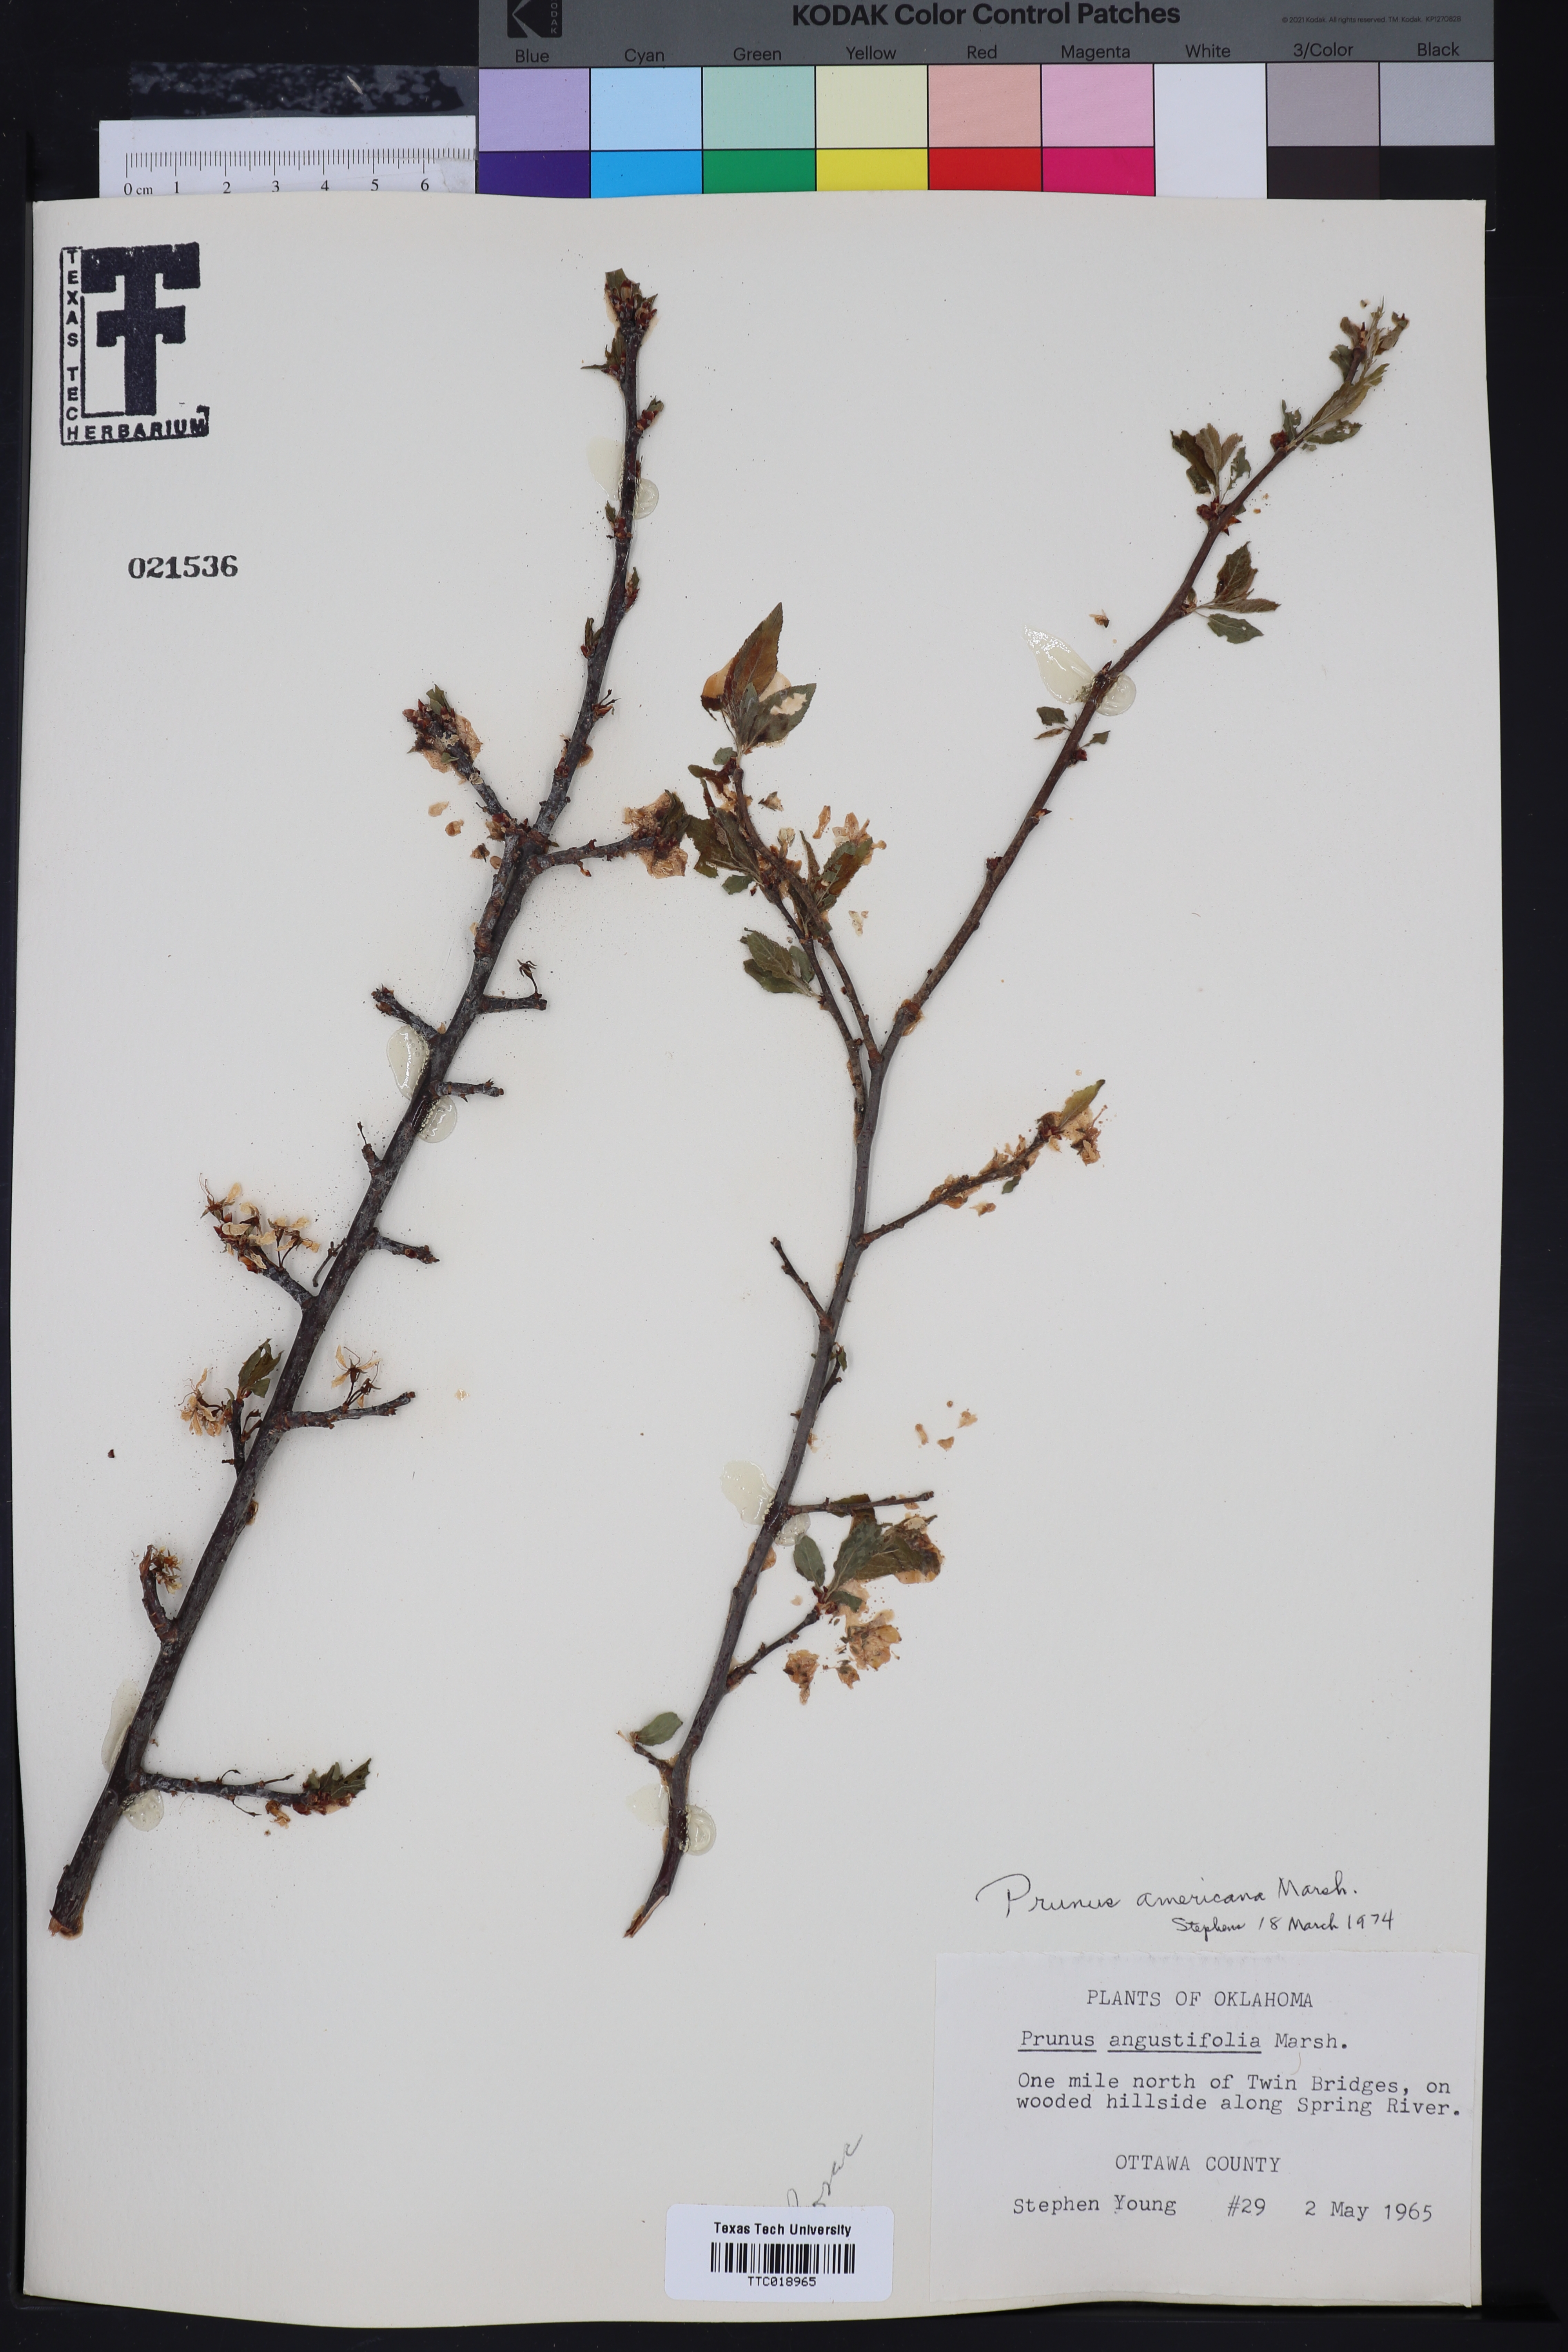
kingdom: Plantae
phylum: Tracheophyta
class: Magnoliopsida
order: Rosales
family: Rosaceae
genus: Prunus
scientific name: Prunus angustifolia
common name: Cherokee plum
